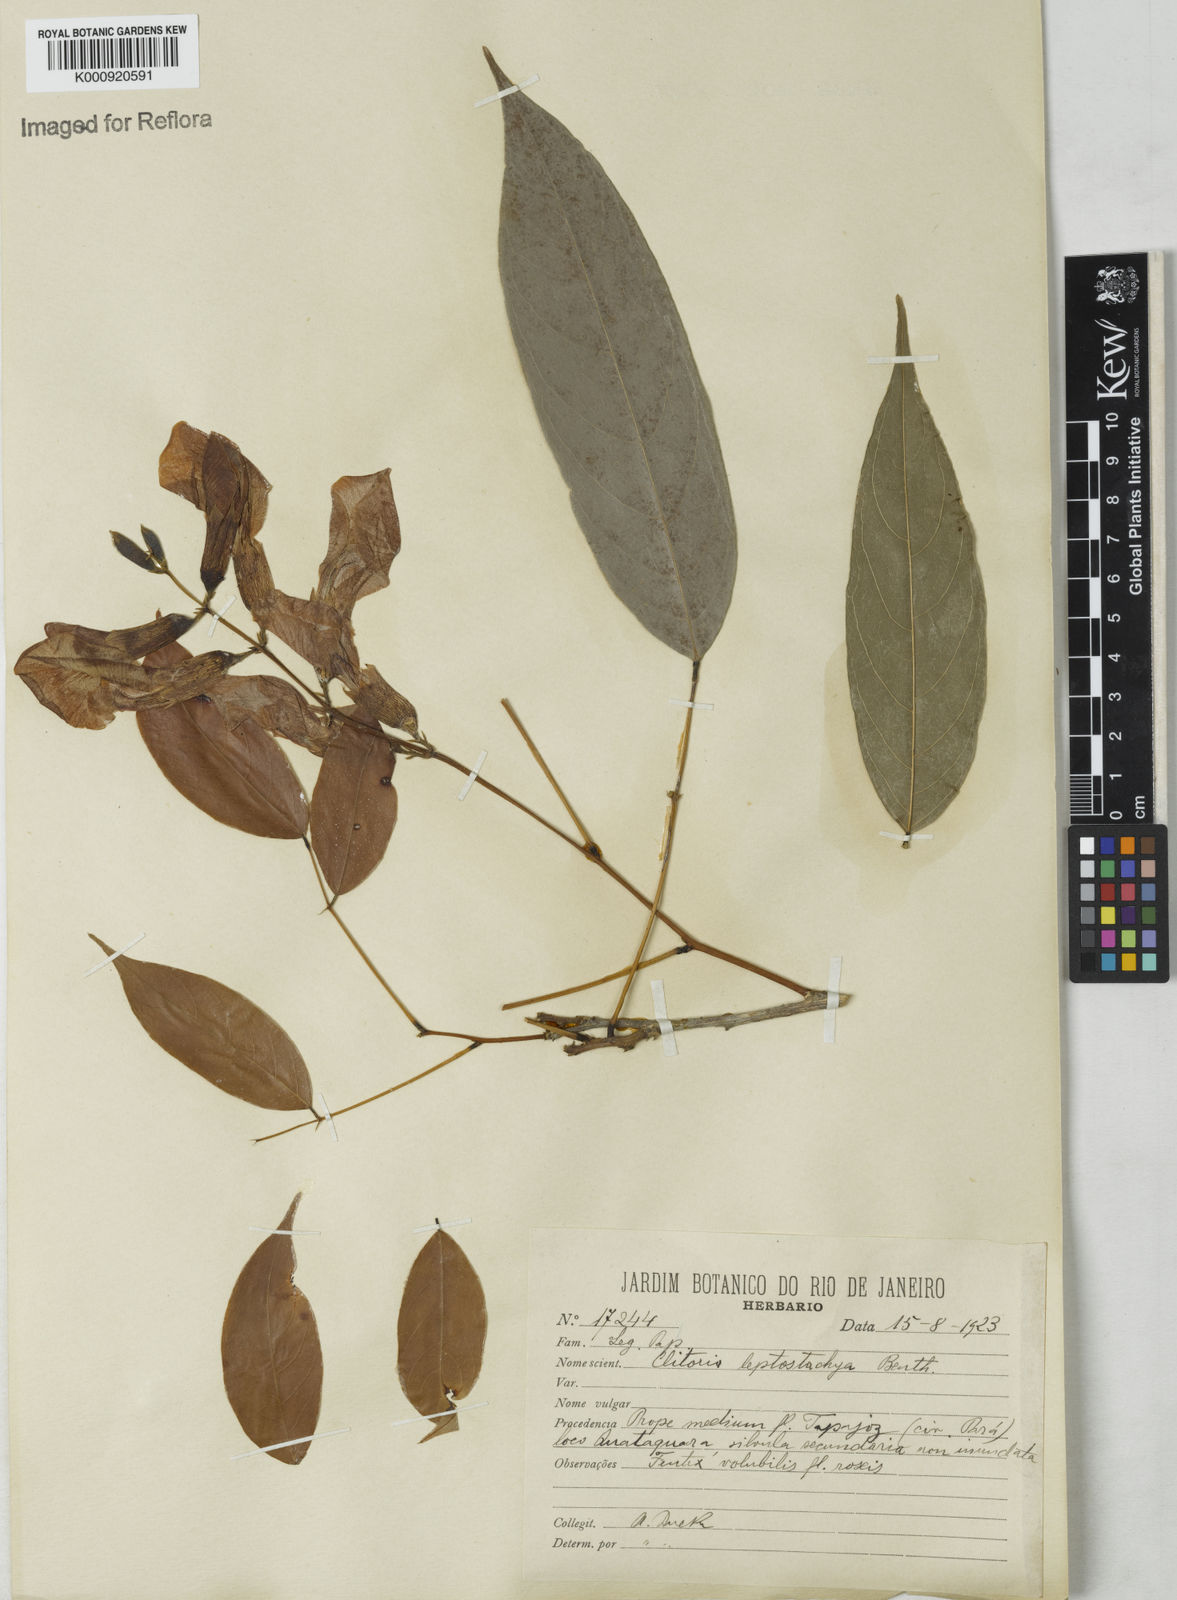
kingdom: Plantae
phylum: Tracheophyta
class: Magnoliopsida
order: Fabales
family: Fabaceae
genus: Clitoria
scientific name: Clitoria leptostachya
